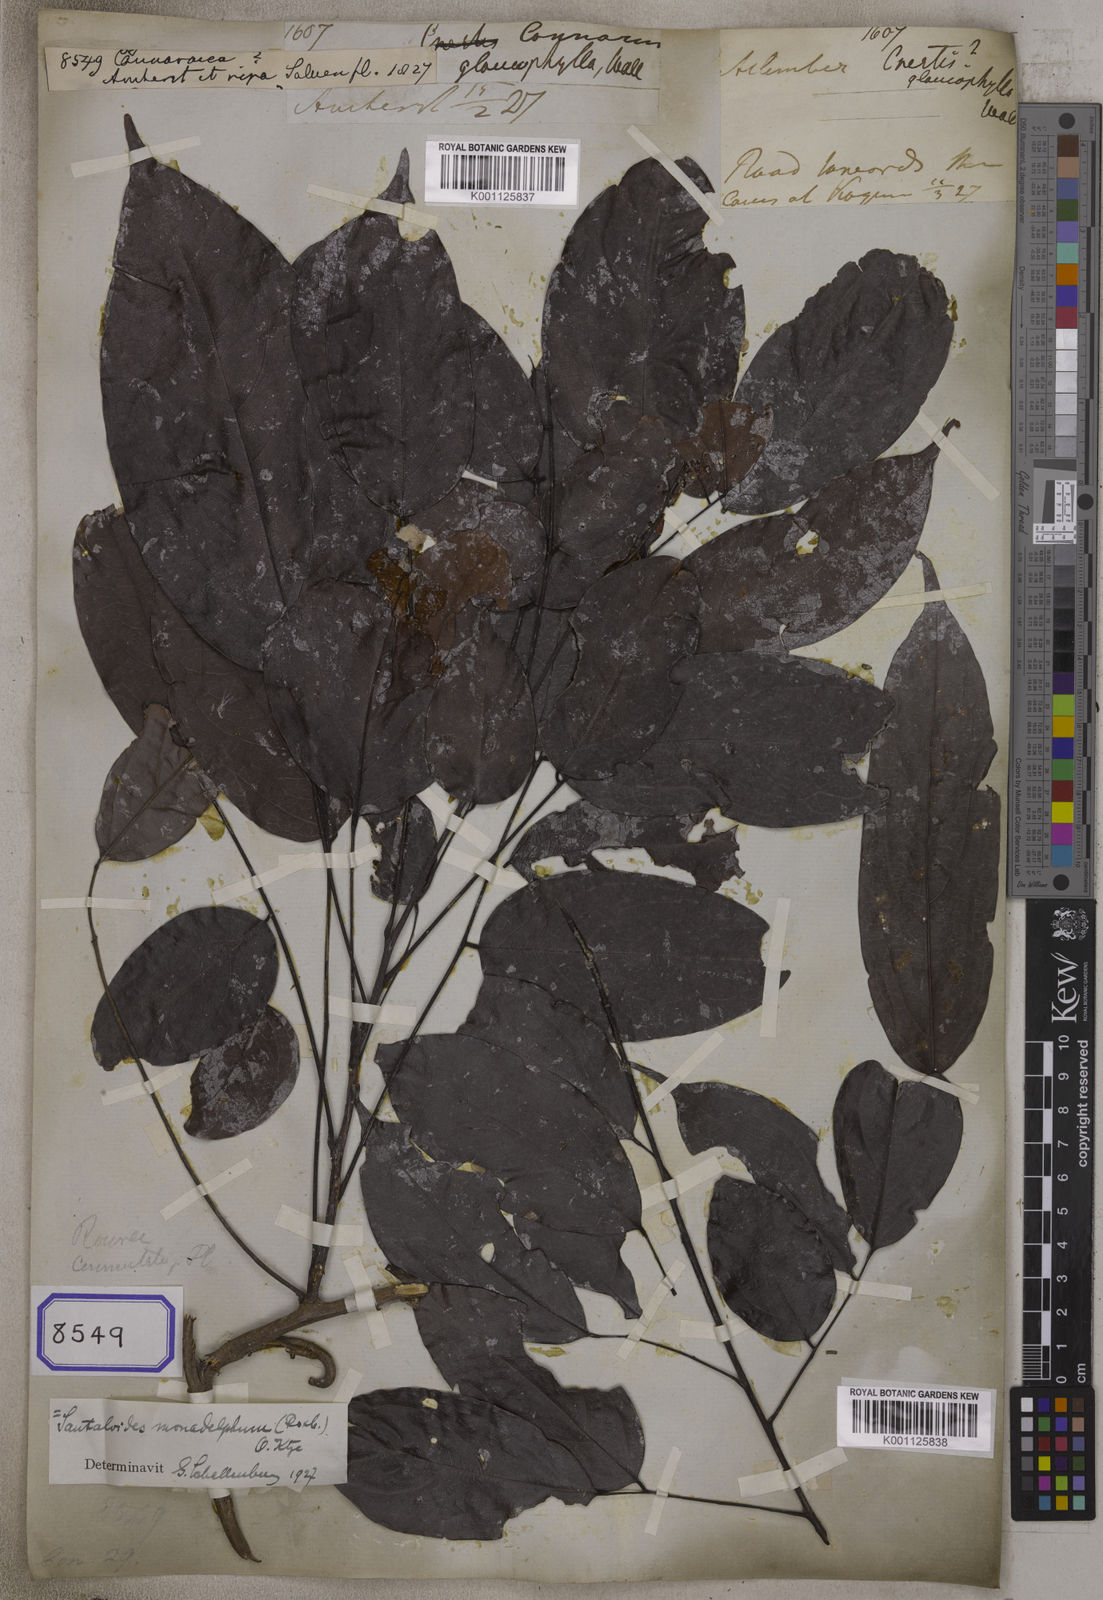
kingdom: Plantae
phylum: Tracheophyta
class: Magnoliopsida
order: Oxalidales
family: Connaraceae
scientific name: Connaraceae
